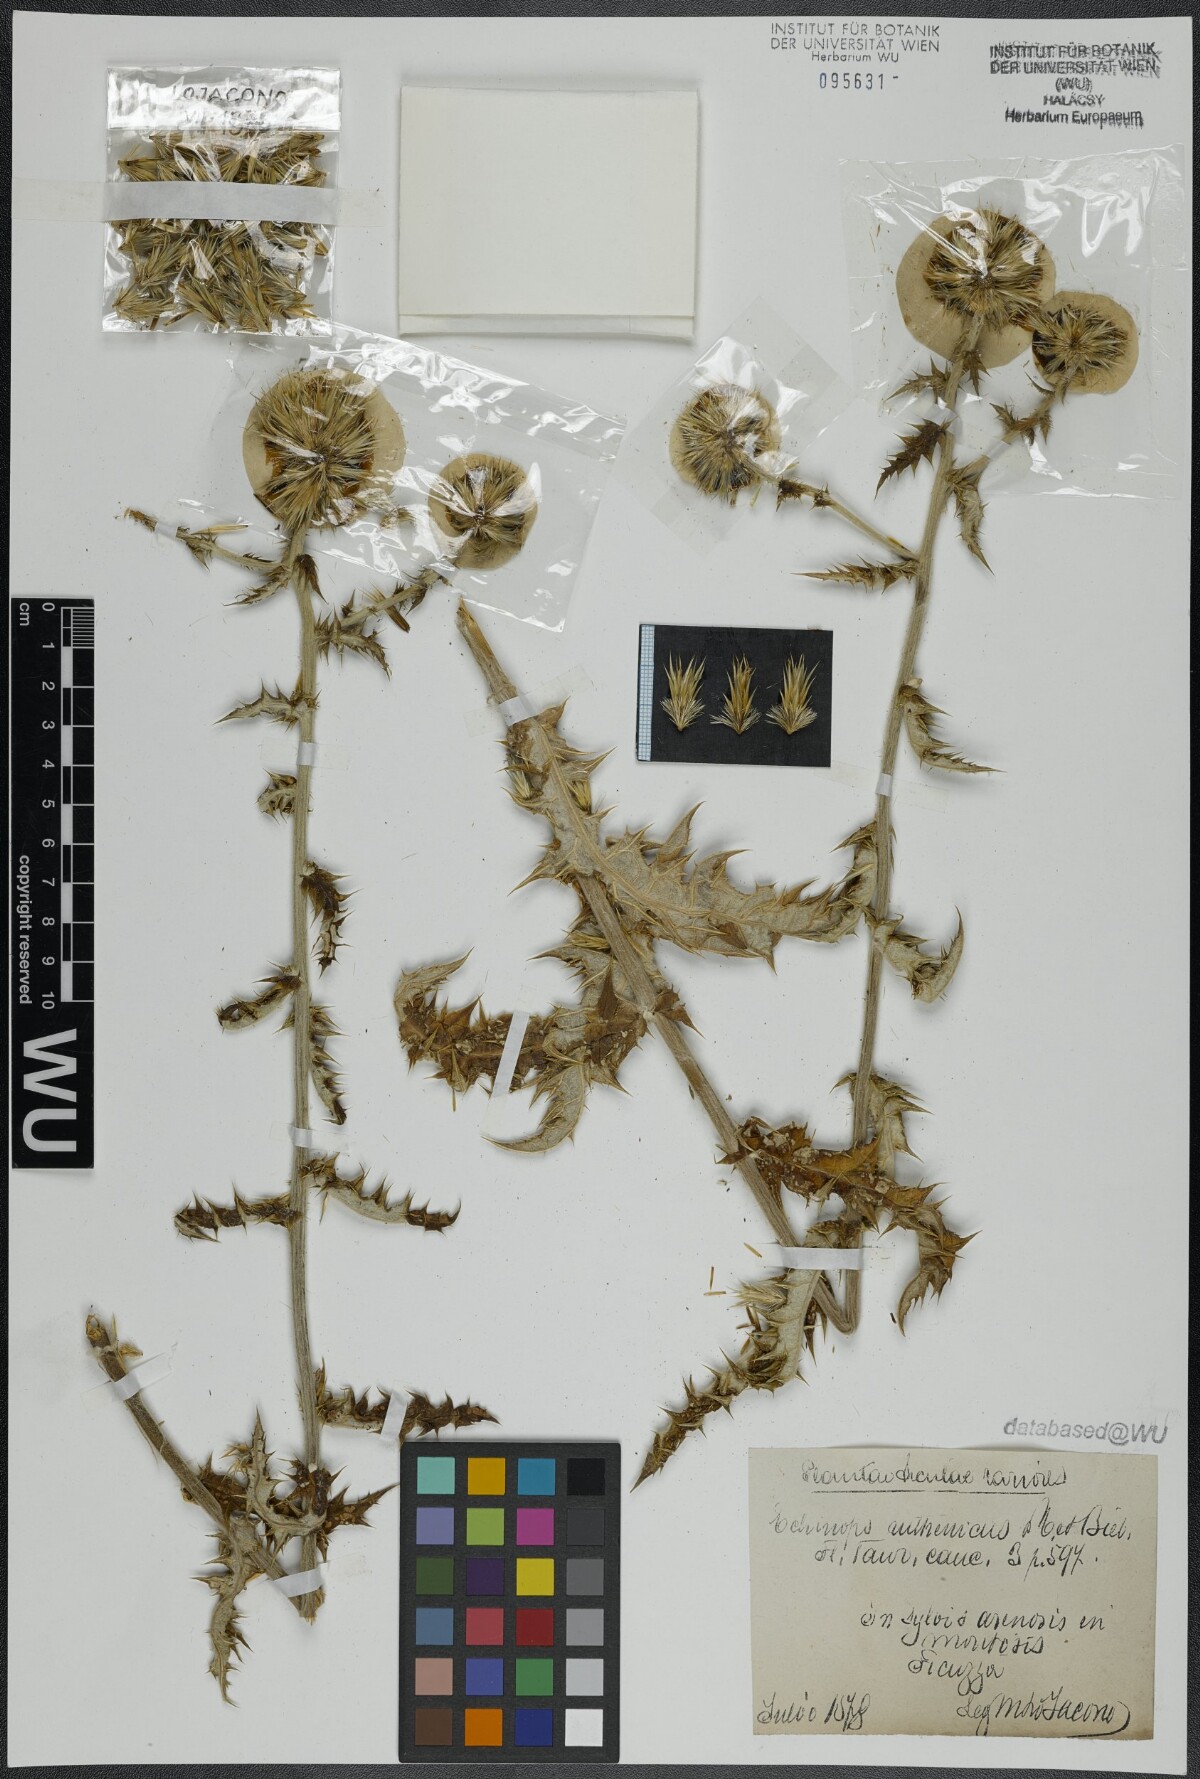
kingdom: Plantae
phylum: Tracheophyta
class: Magnoliopsida
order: Asterales
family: Asteraceae
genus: Echinops
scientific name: Echinops ritro
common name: Globe thistle
